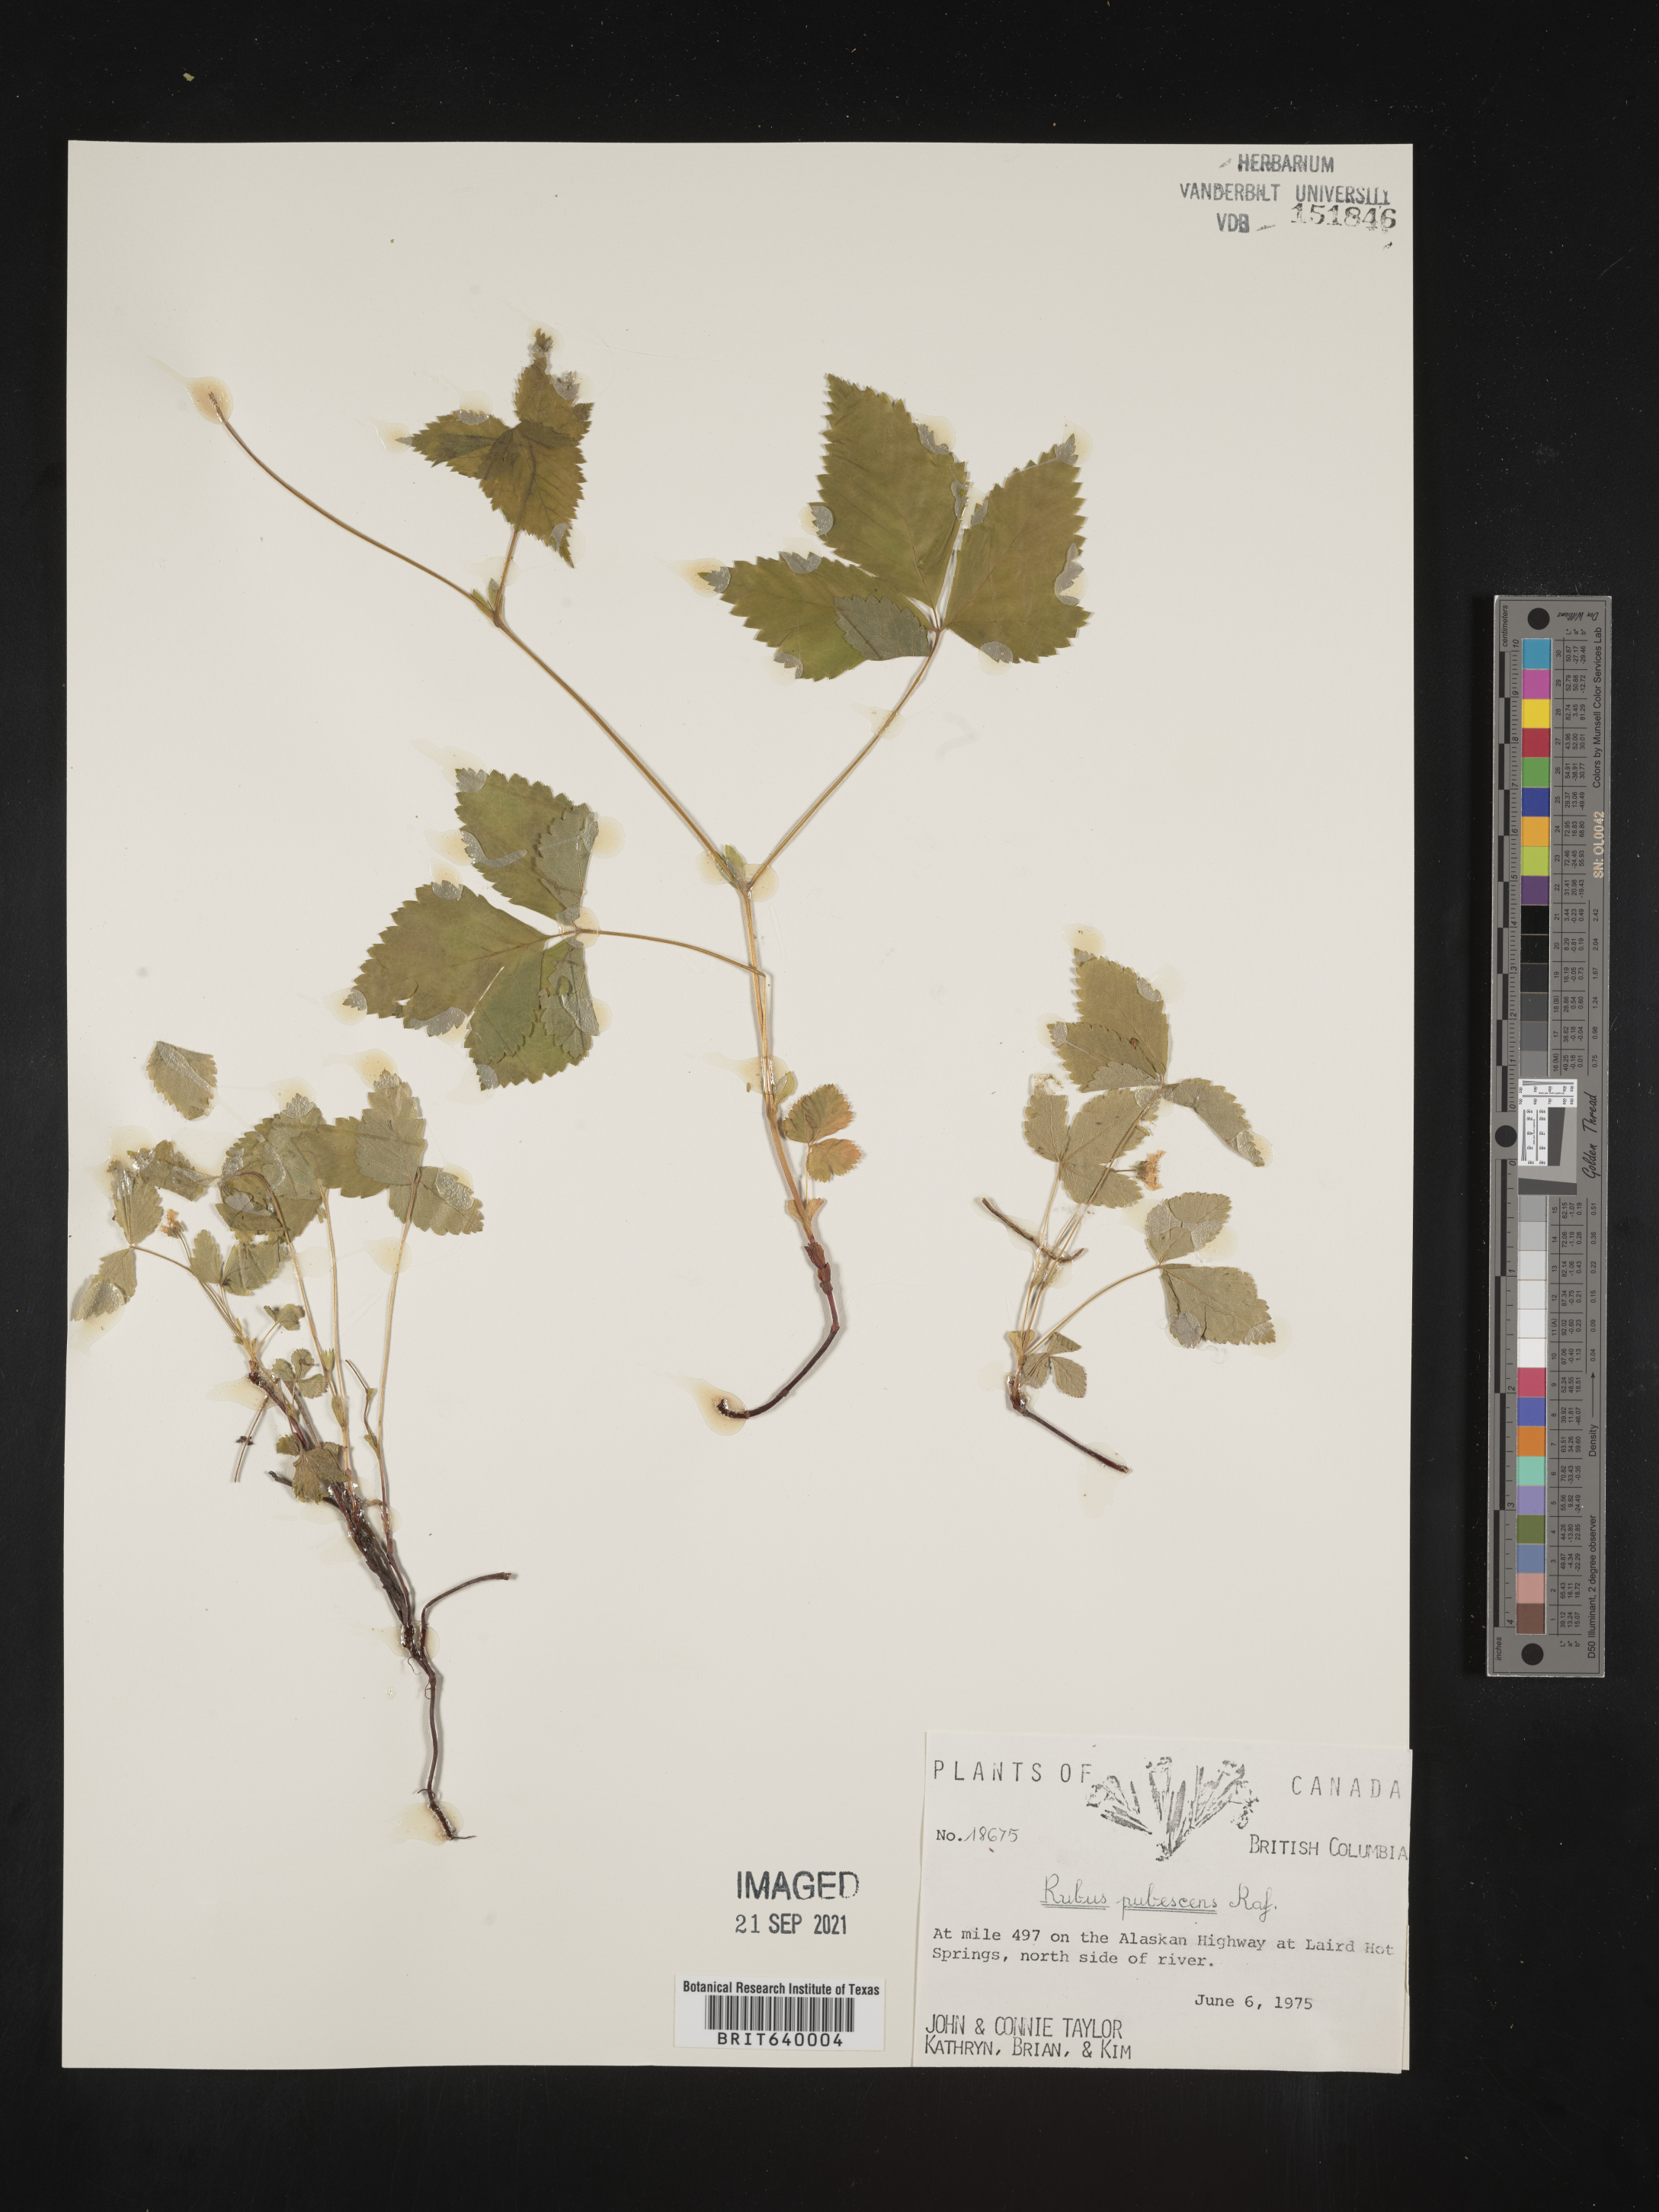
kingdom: Plantae
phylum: Tracheophyta
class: Magnoliopsida
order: Rosales
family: Rosaceae
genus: Rubus
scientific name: Rubus
